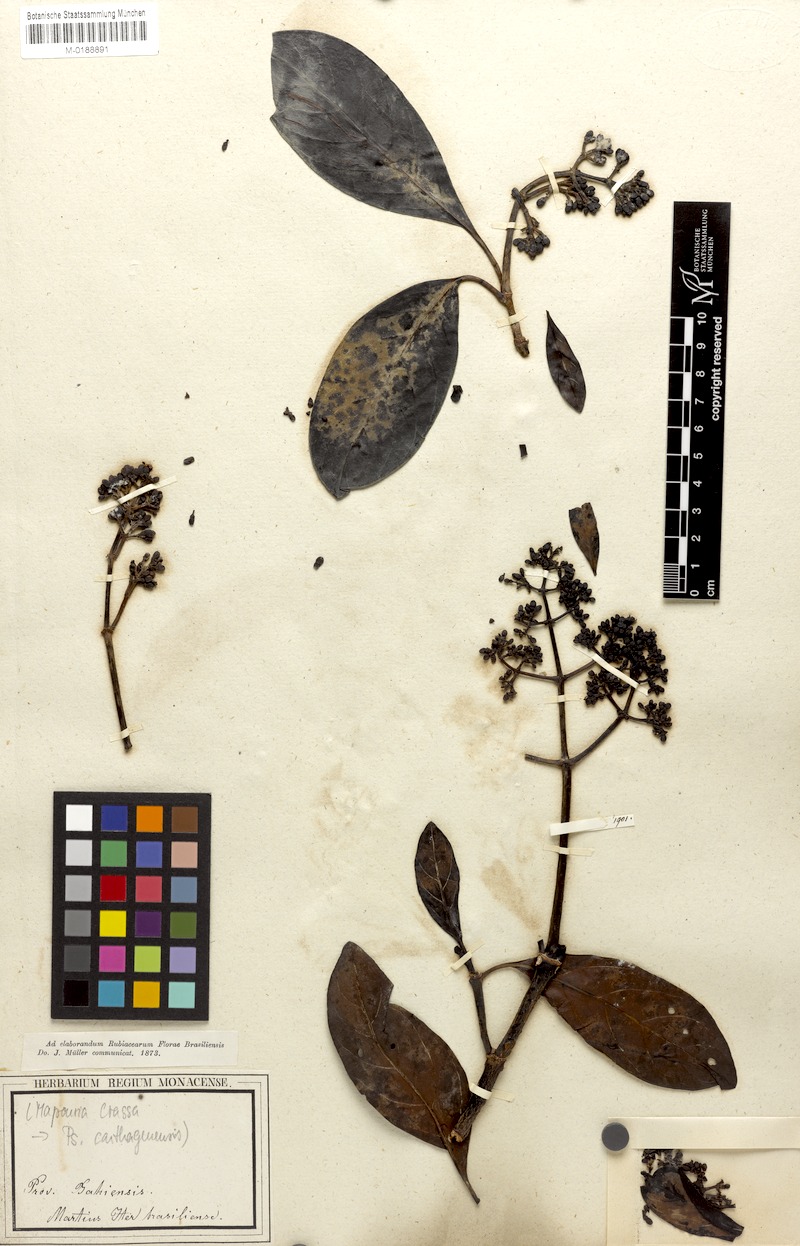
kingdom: Plantae
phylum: Tracheophyta
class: Magnoliopsida
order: Gentianales
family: Rubiaceae
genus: Psychotria
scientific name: Psychotria carthagenensis
